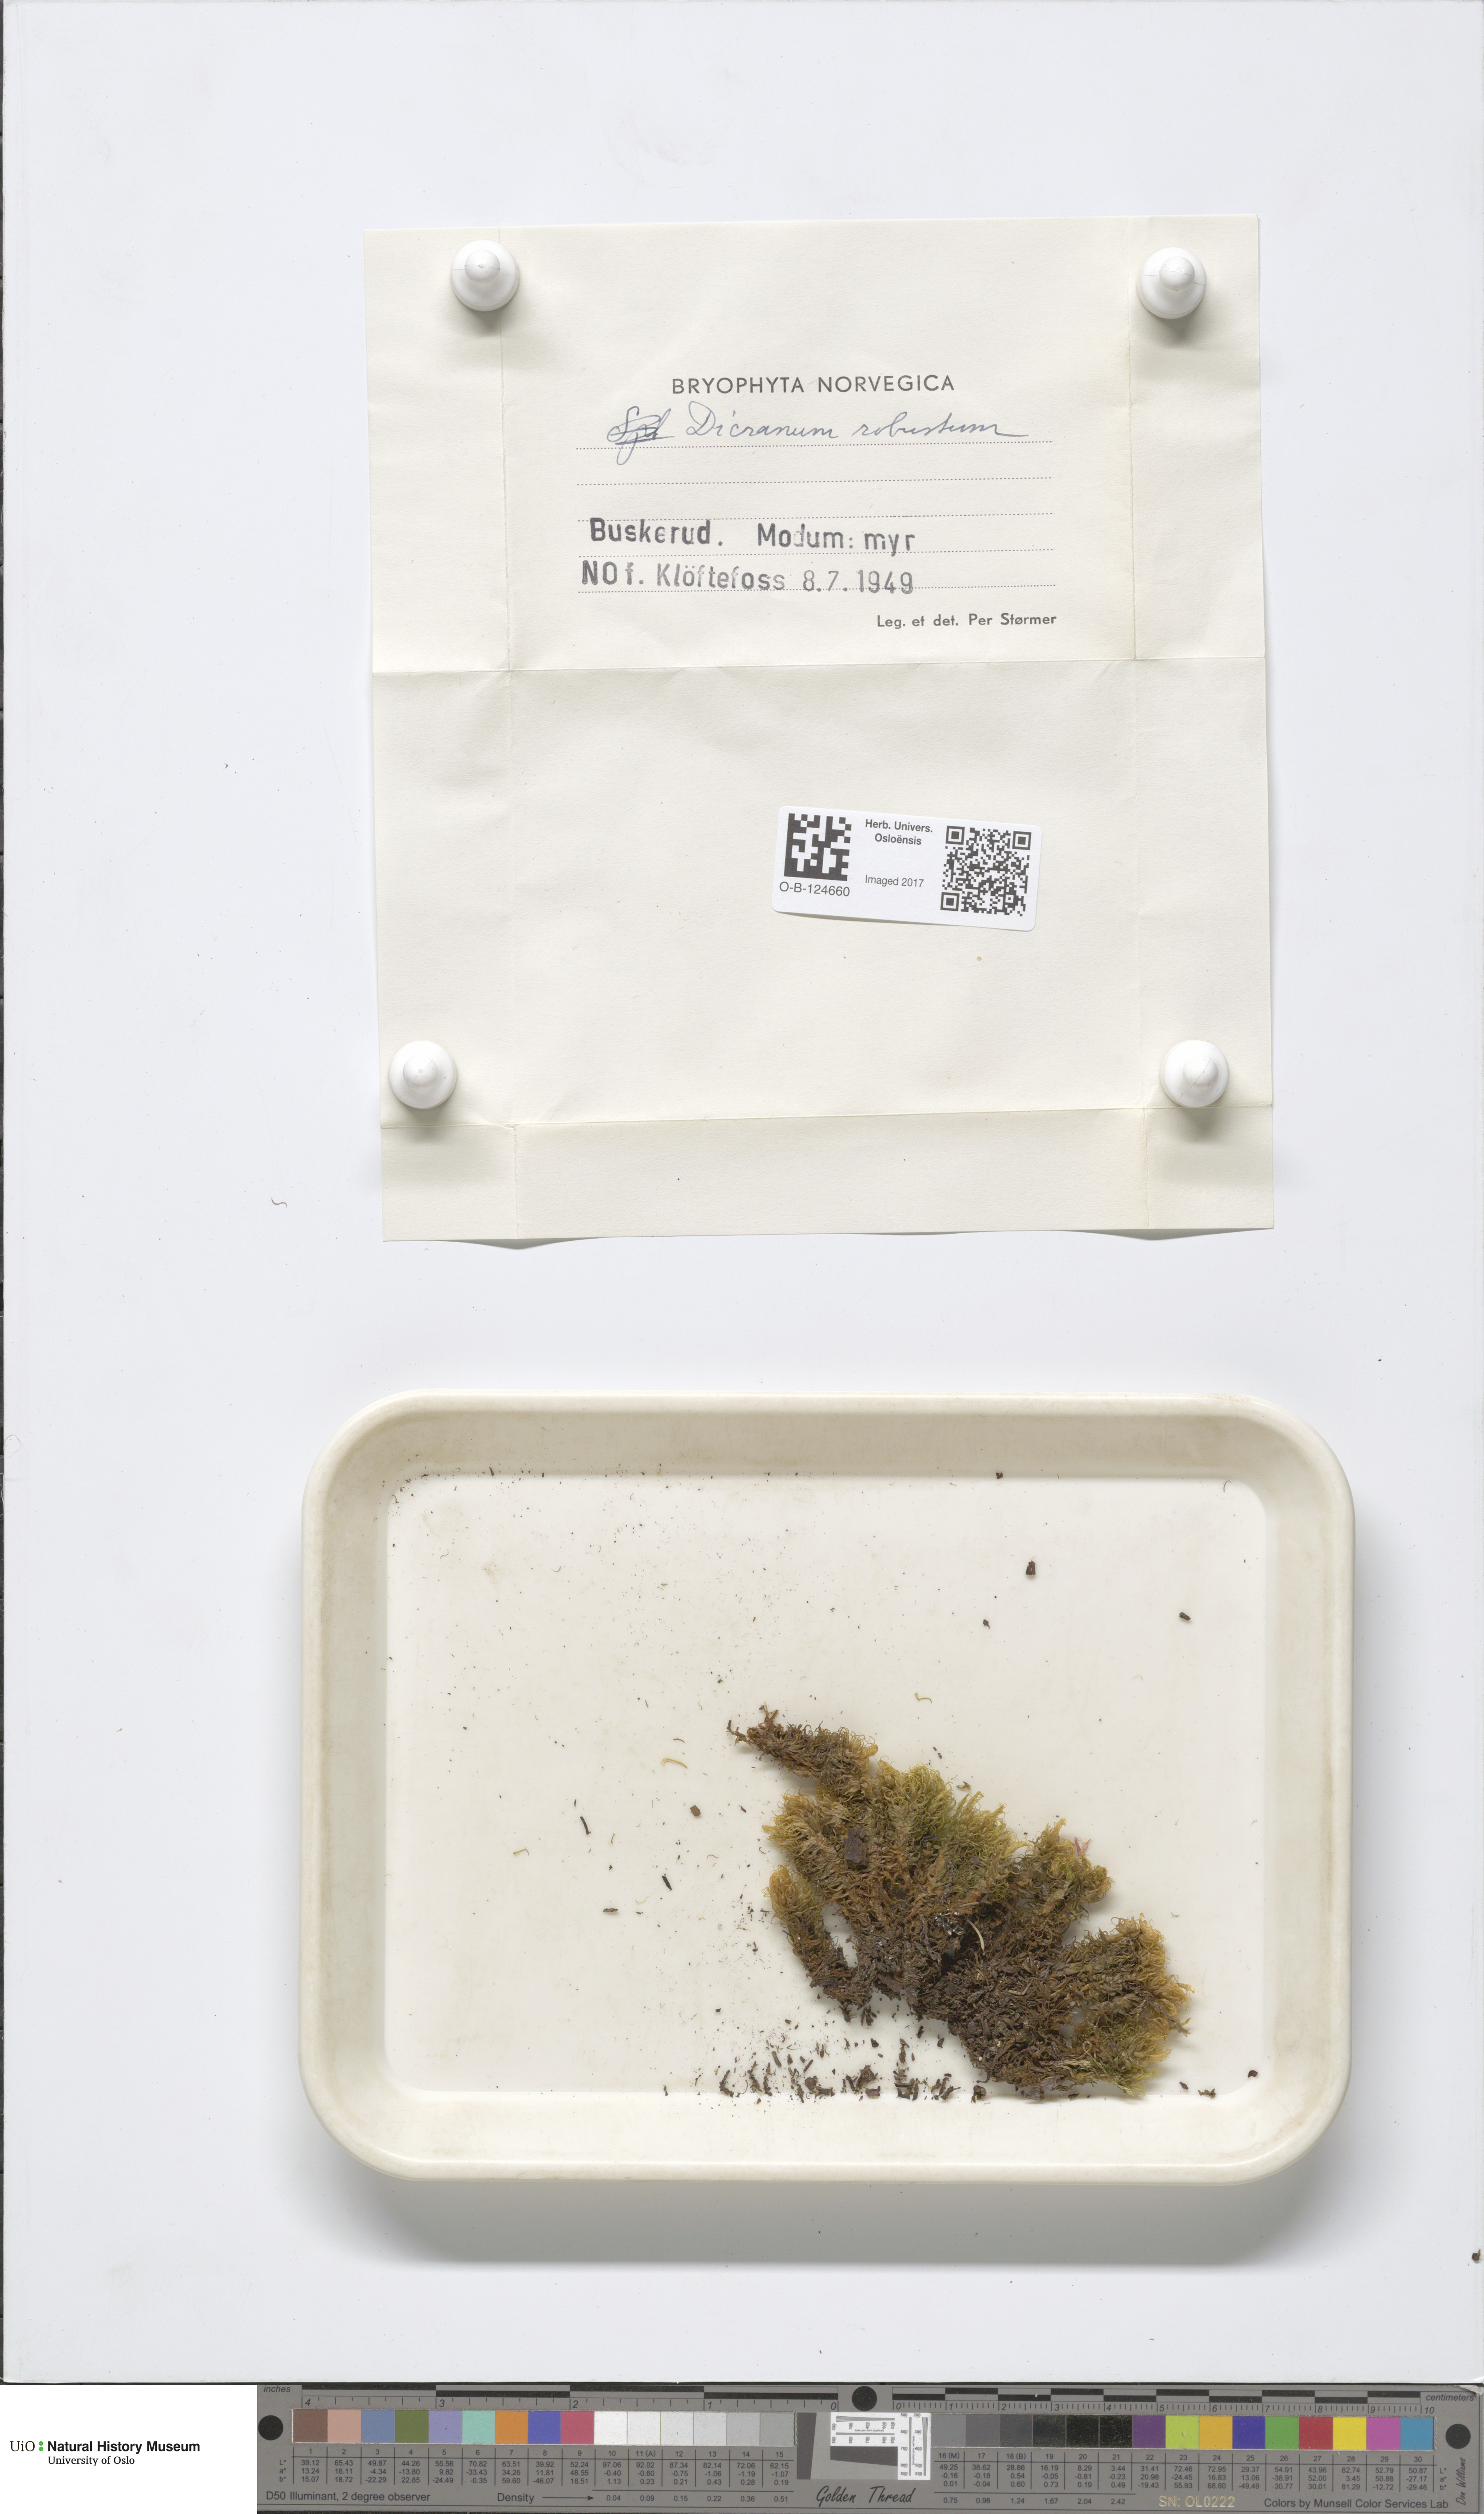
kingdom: Plantae
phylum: Bryophyta
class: Bryopsida
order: Dicranales
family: Dicranaceae
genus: Dicranum
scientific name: Dicranum drummondii
